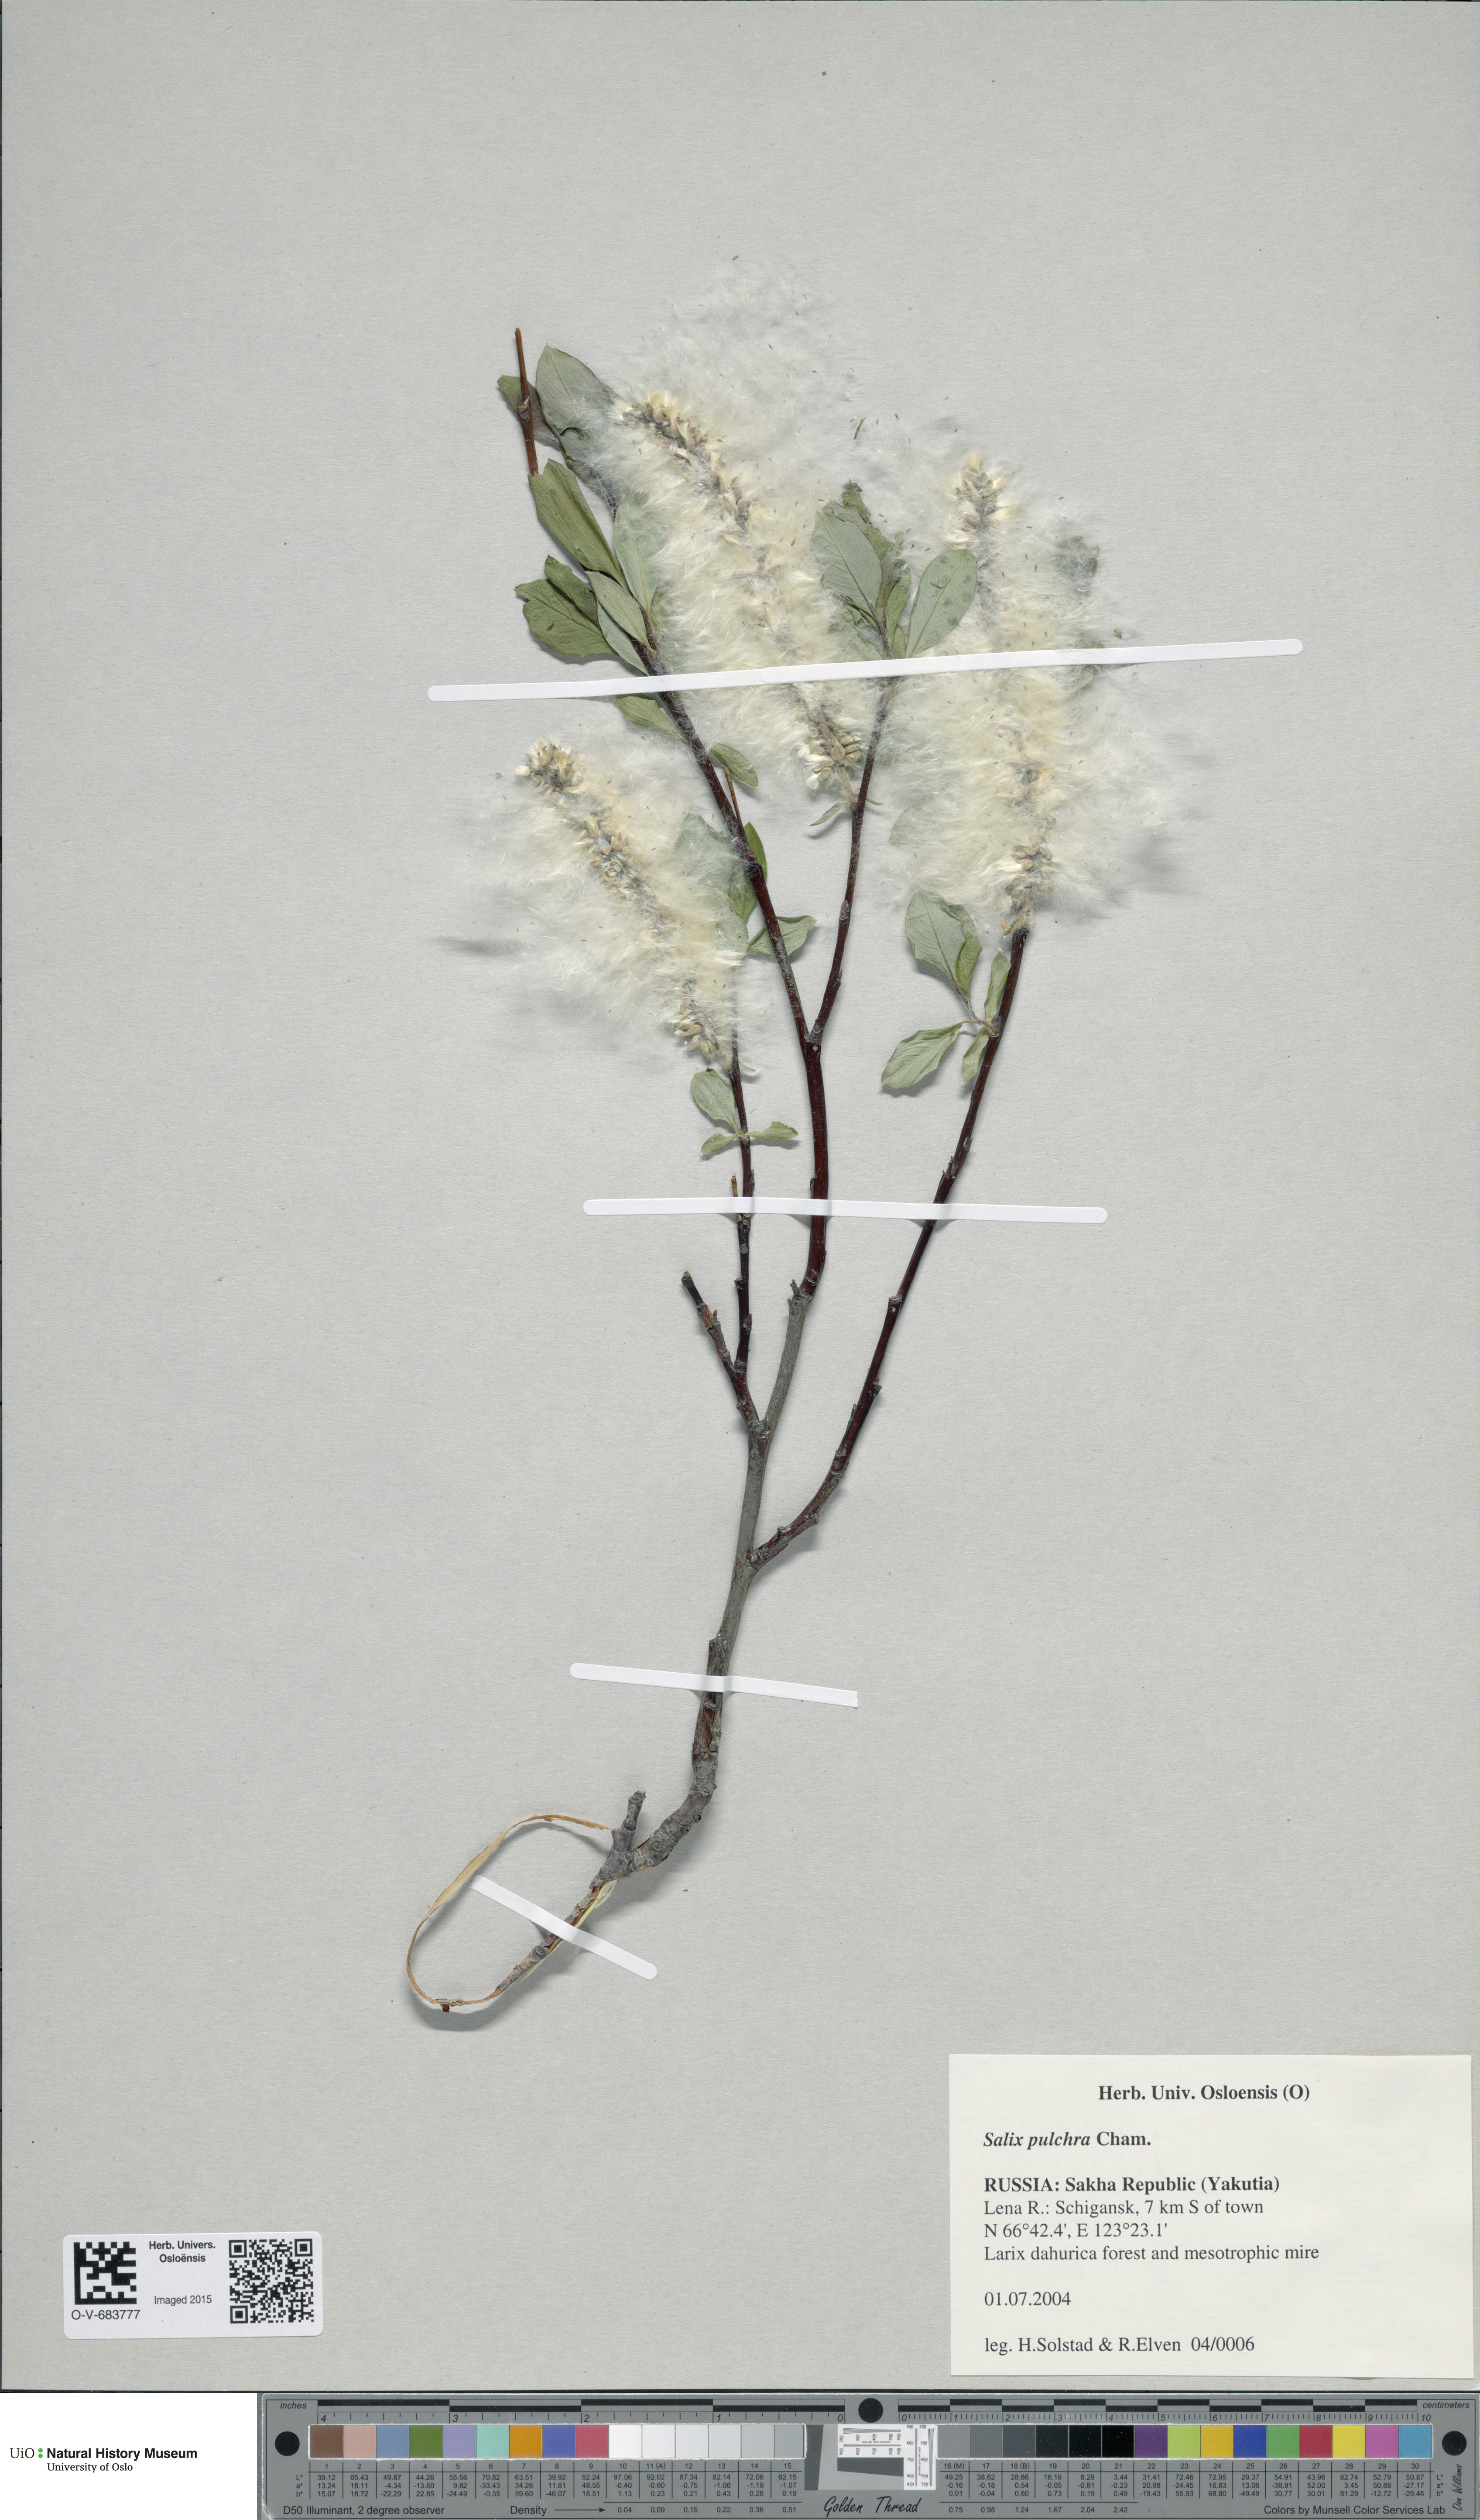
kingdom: Plantae
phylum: Tracheophyta
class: Magnoliopsida
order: Malpighiales
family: Salicaceae
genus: Salix
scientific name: Salix pulchra
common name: Diamond-leaved willow
